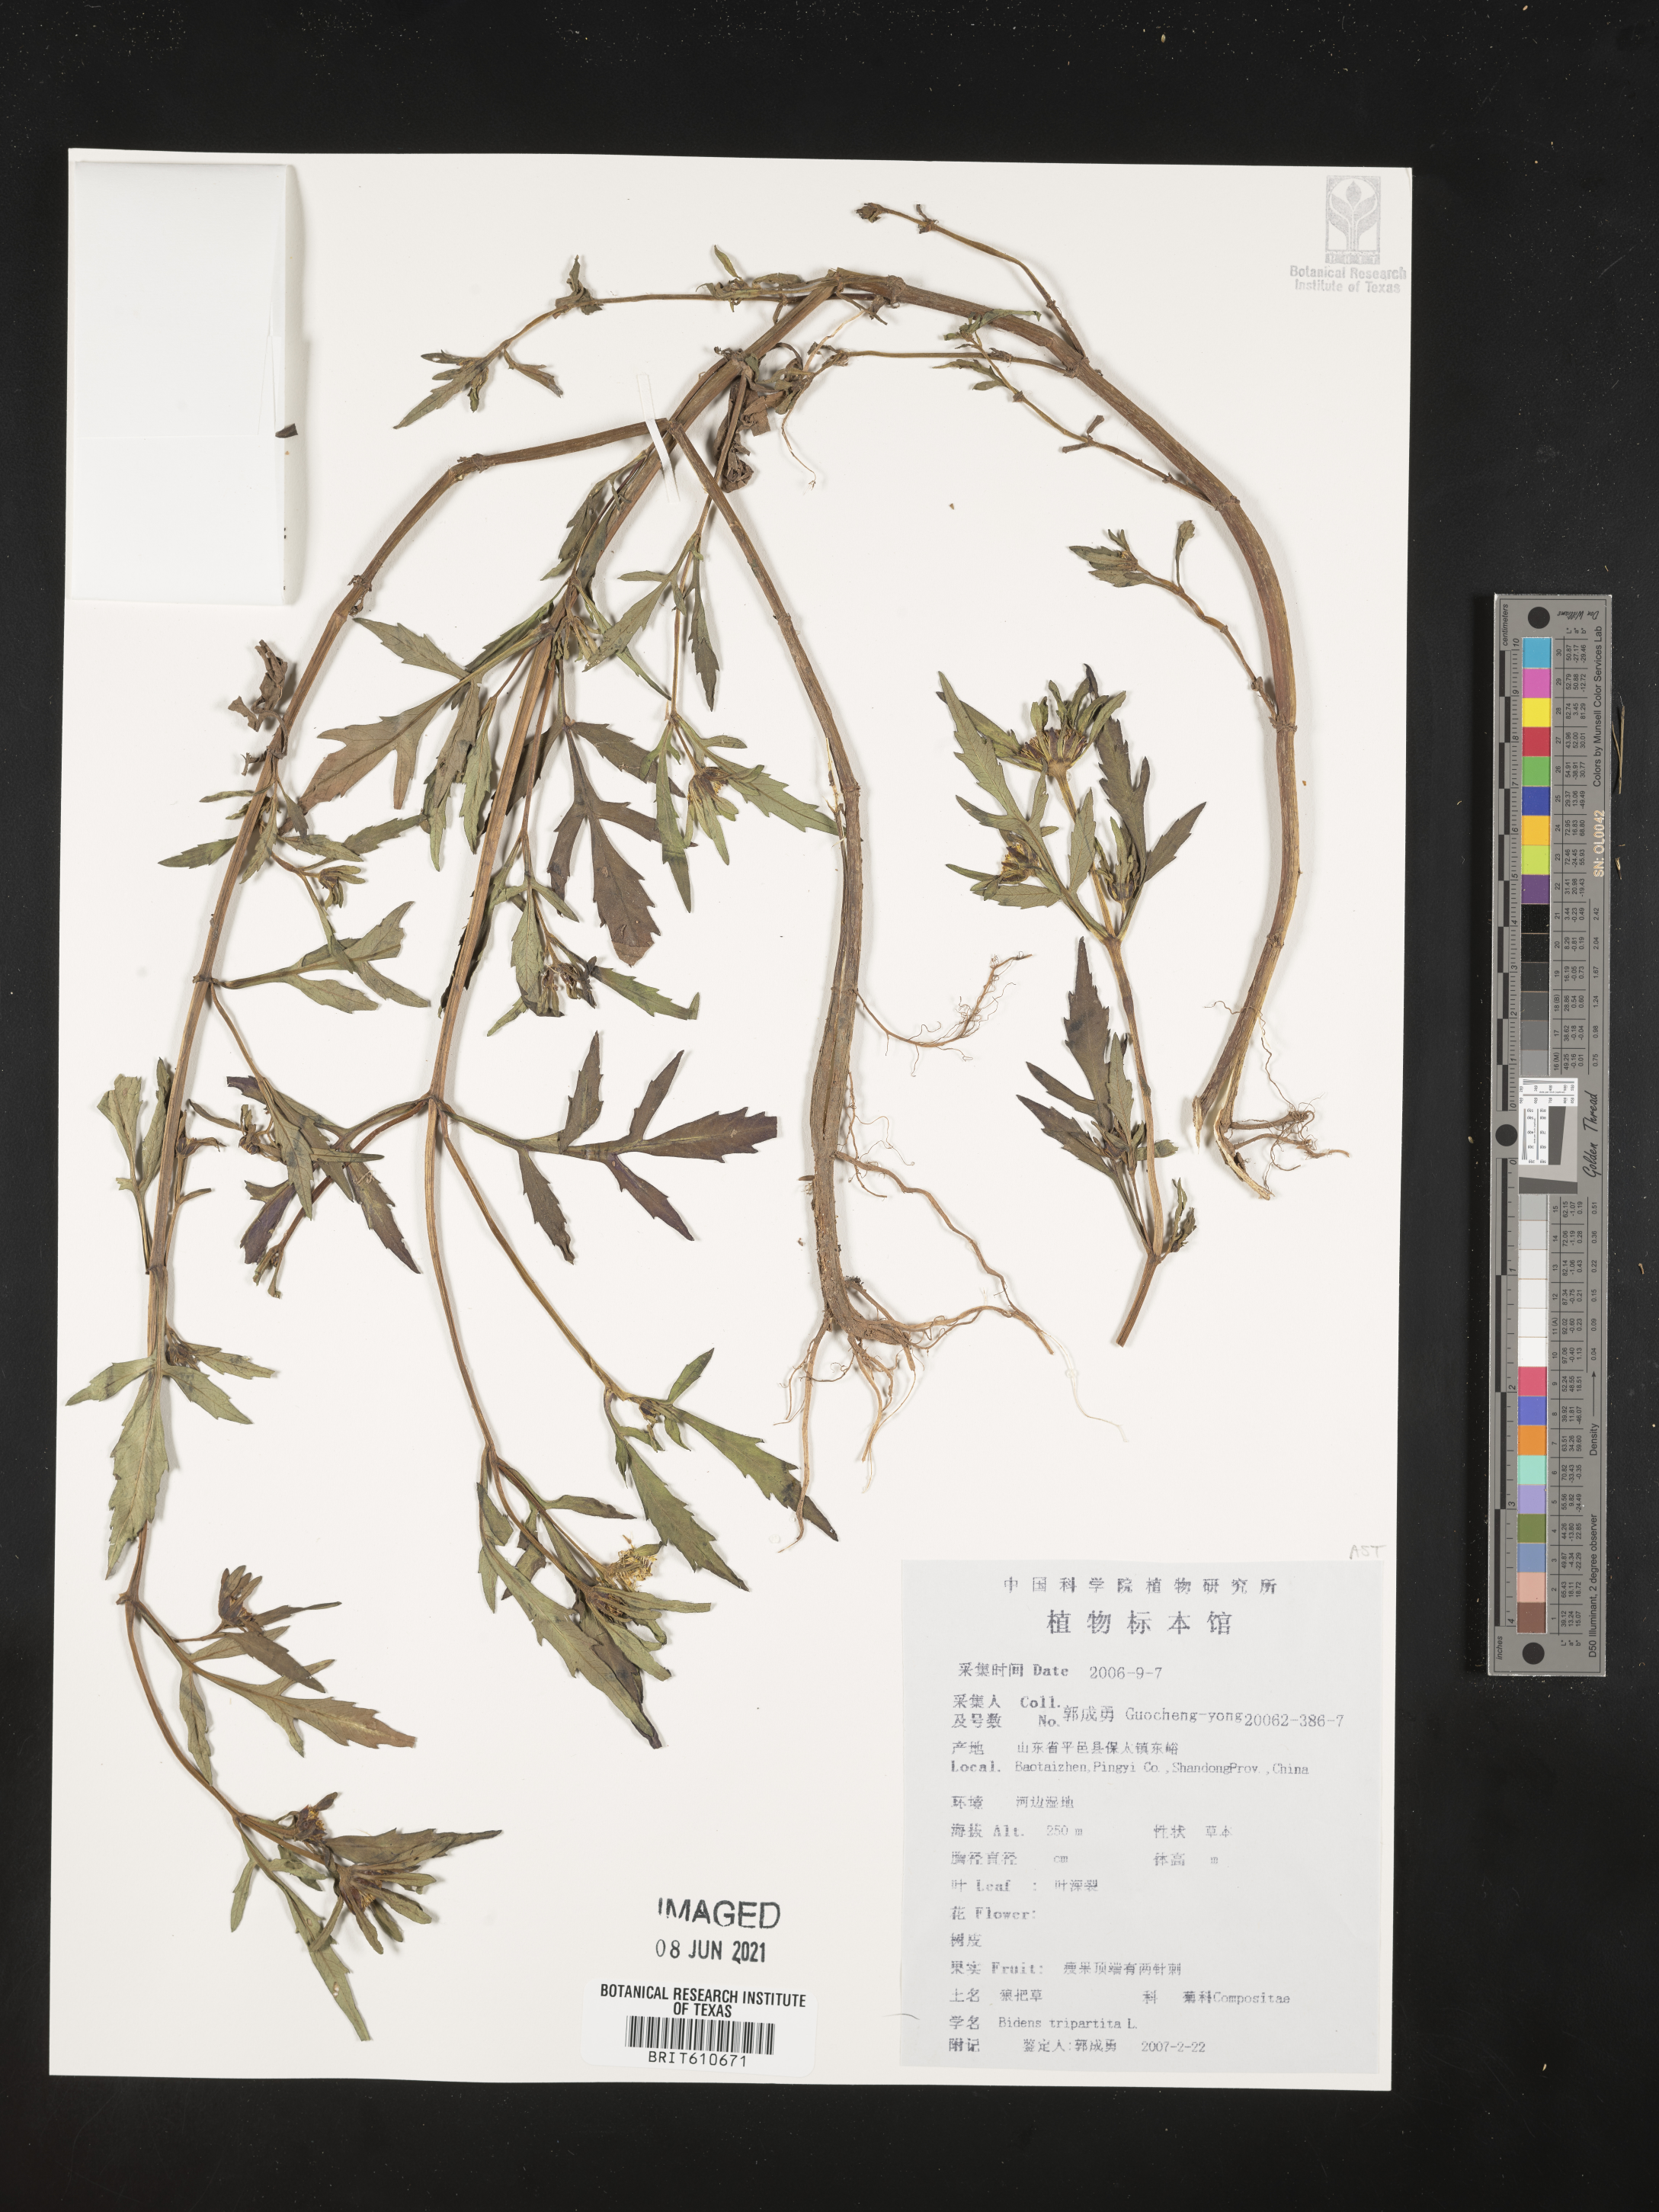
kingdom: Plantae
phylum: Tracheophyta
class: Magnoliopsida
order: Asterales
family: Asteraceae
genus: Bidens
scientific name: Bidens tripartita
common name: Trifid bur-marigold
